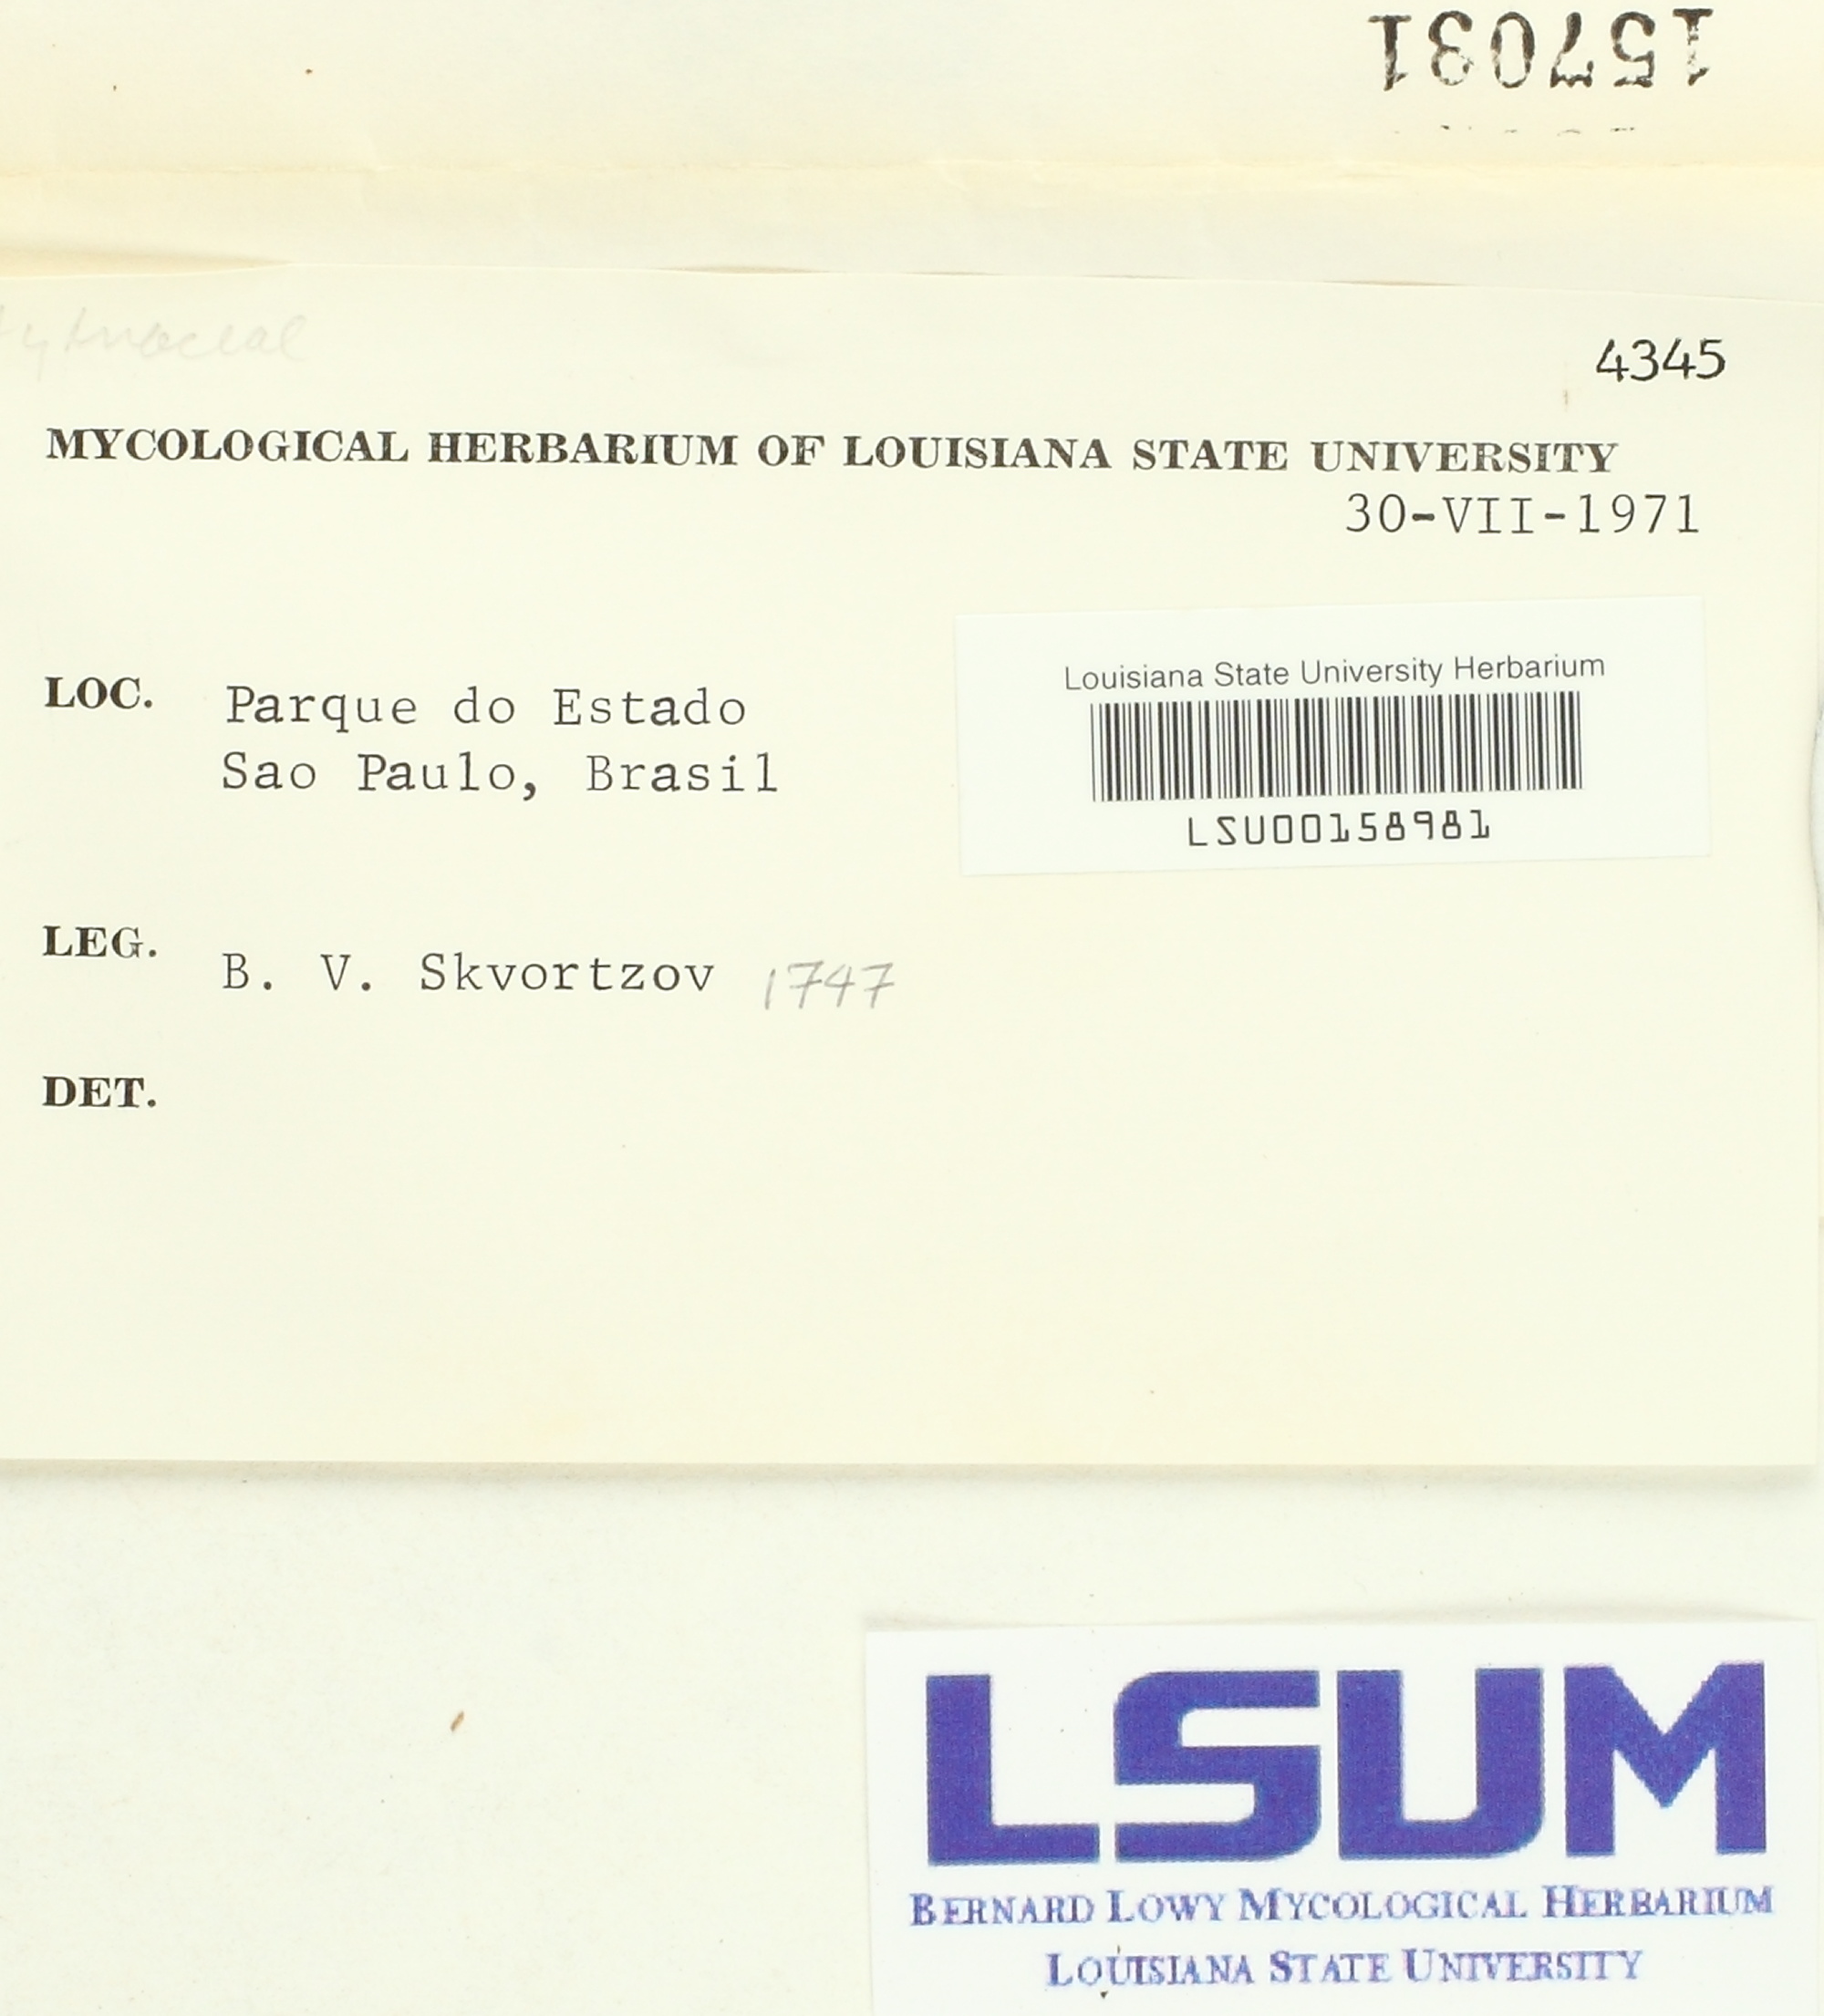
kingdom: Fungi
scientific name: Fungi
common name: Fungi
